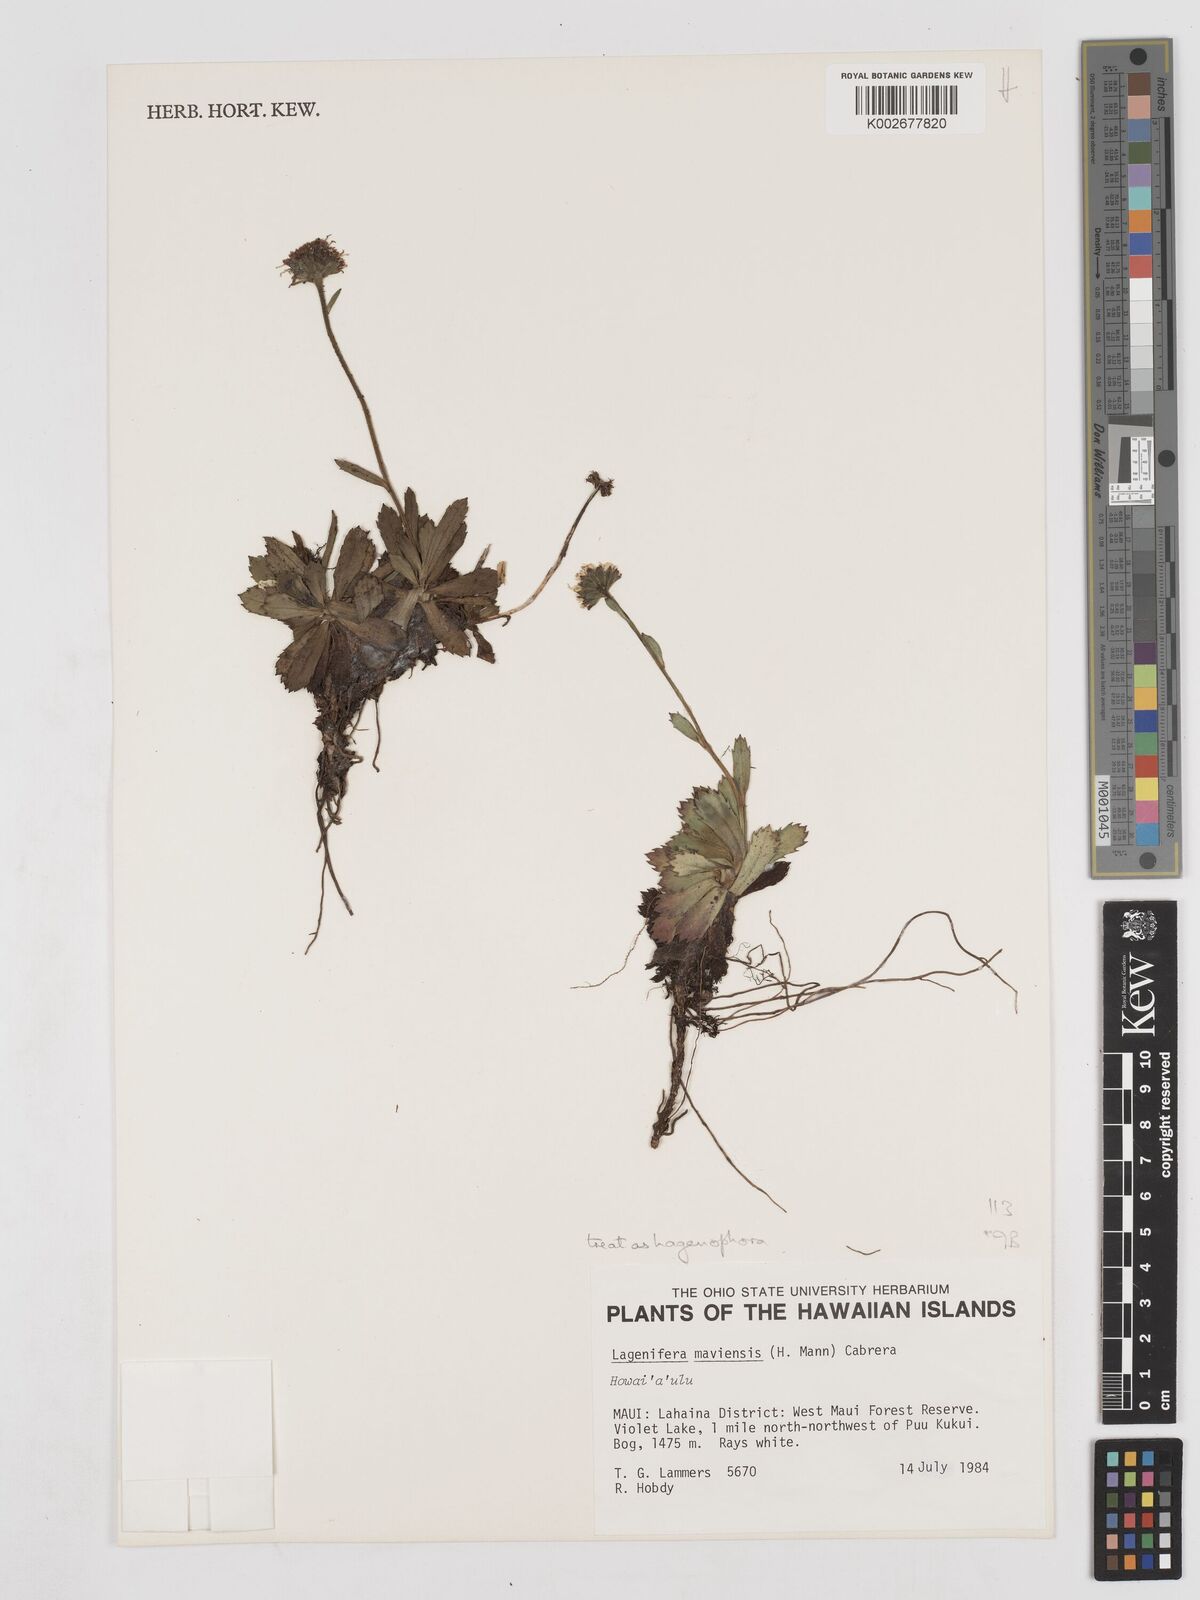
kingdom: Plantae
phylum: Tracheophyta
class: Magnoliopsida
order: Asterales
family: Asteraceae
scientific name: Asteraceae
